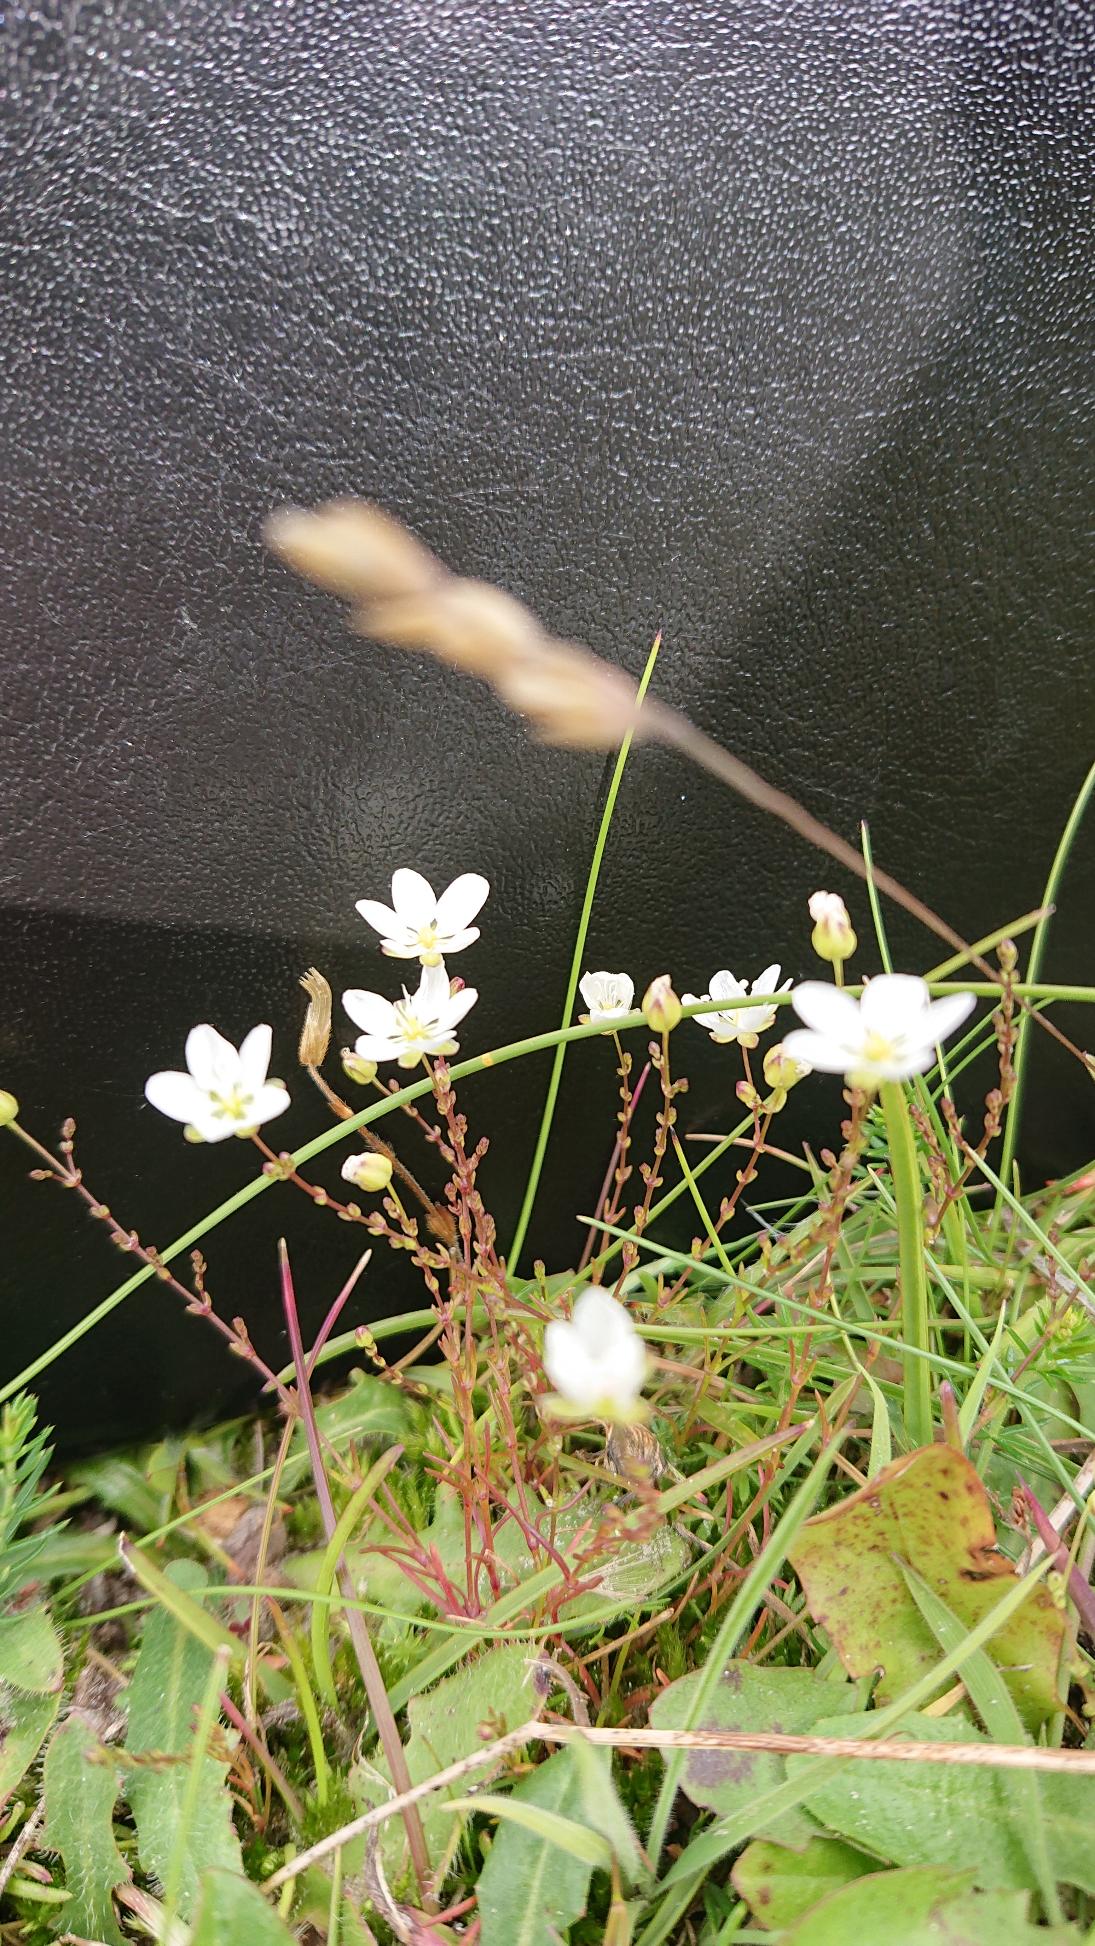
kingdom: Plantae
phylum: Tracheophyta
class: Magnoliopsida
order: Caryophyllales
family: Caryophyllaceae
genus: Sagina
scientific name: Sagina nodosa
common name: Knude-firling
